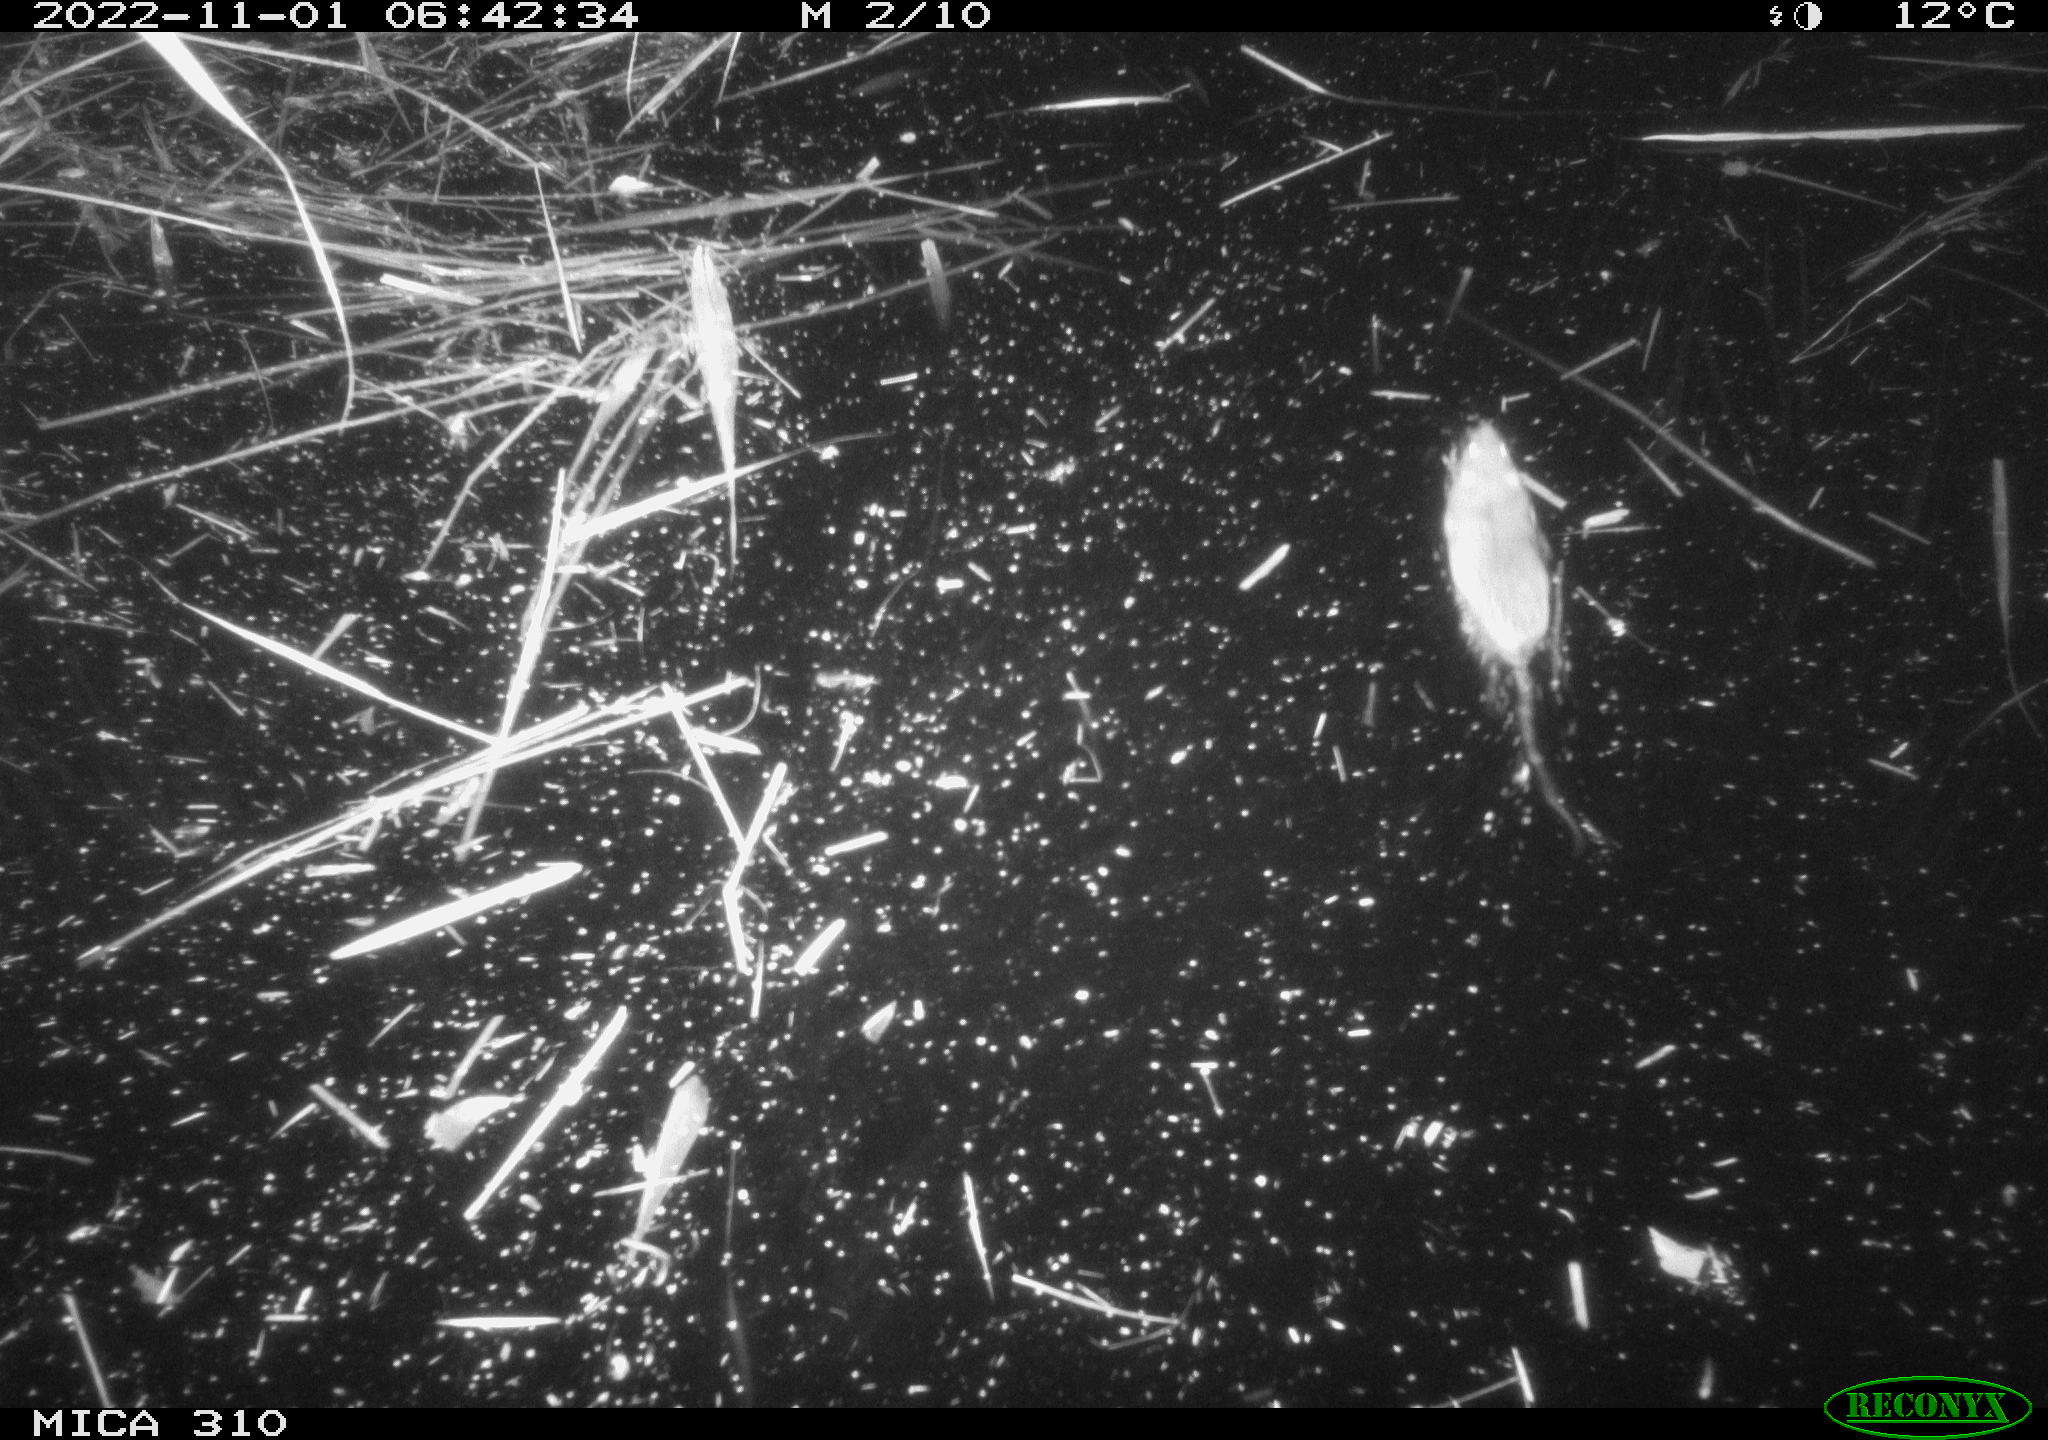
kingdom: Animalia
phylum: Chordata
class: Mammalia
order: Rodentia
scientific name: Rodentia
